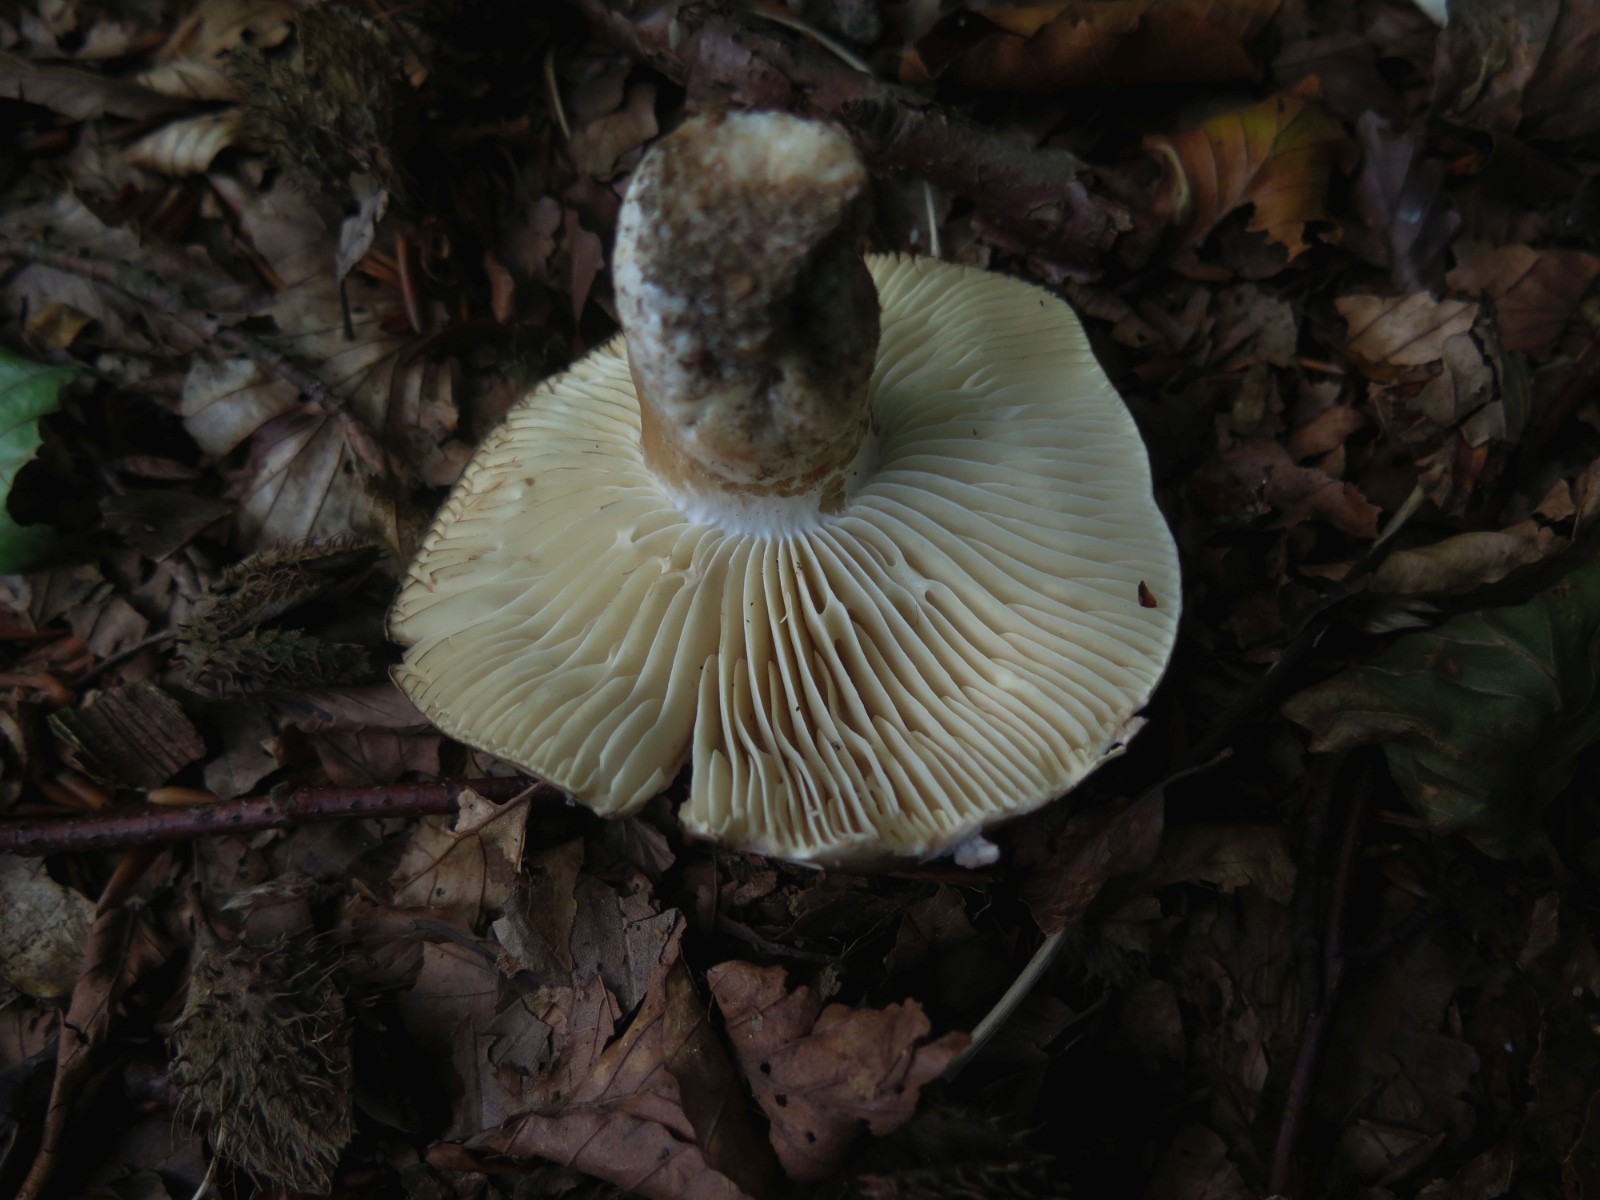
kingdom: Fungi
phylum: Basidiomycota
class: Agaricomycetes
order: Russulales
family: Russulaceae
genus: Russula
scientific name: Russula adusta
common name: sværtende skørhat
